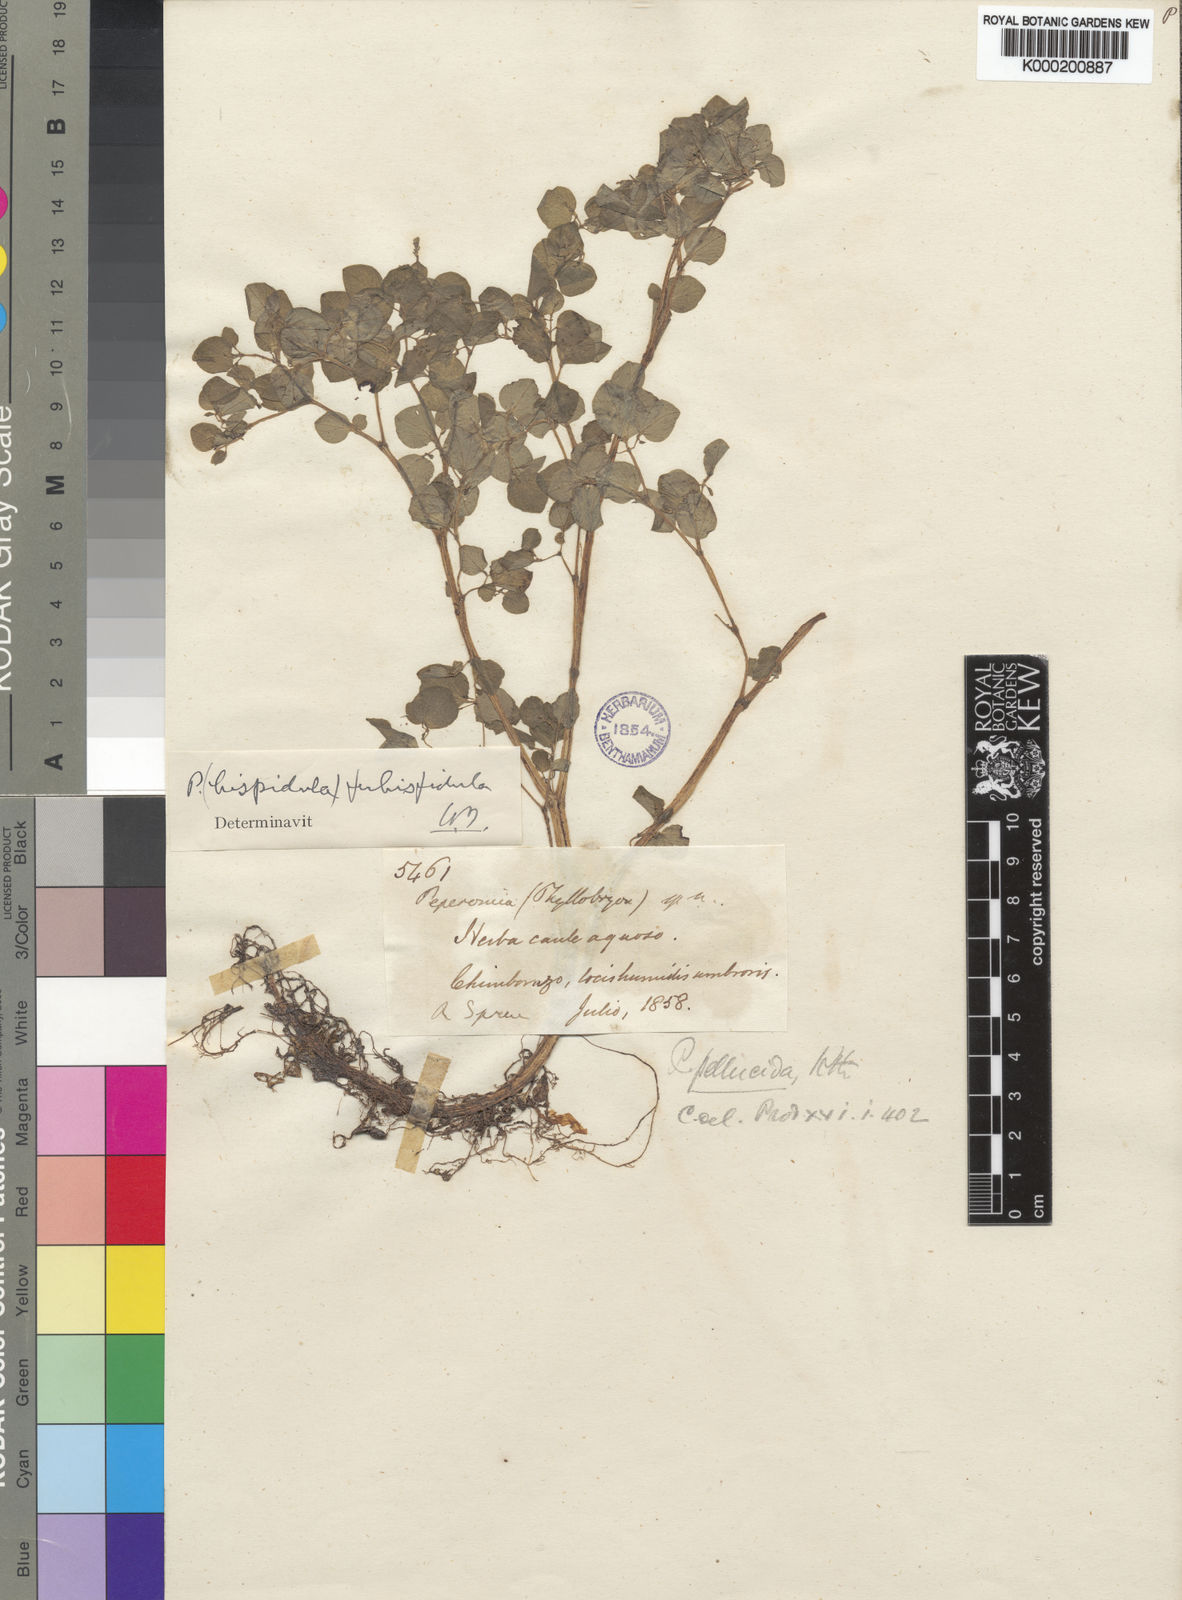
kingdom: Plantae
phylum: Tracheophyta
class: Magnoliopsida
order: Piperales
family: Piperaceae
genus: Peperomia
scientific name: Peperomia
